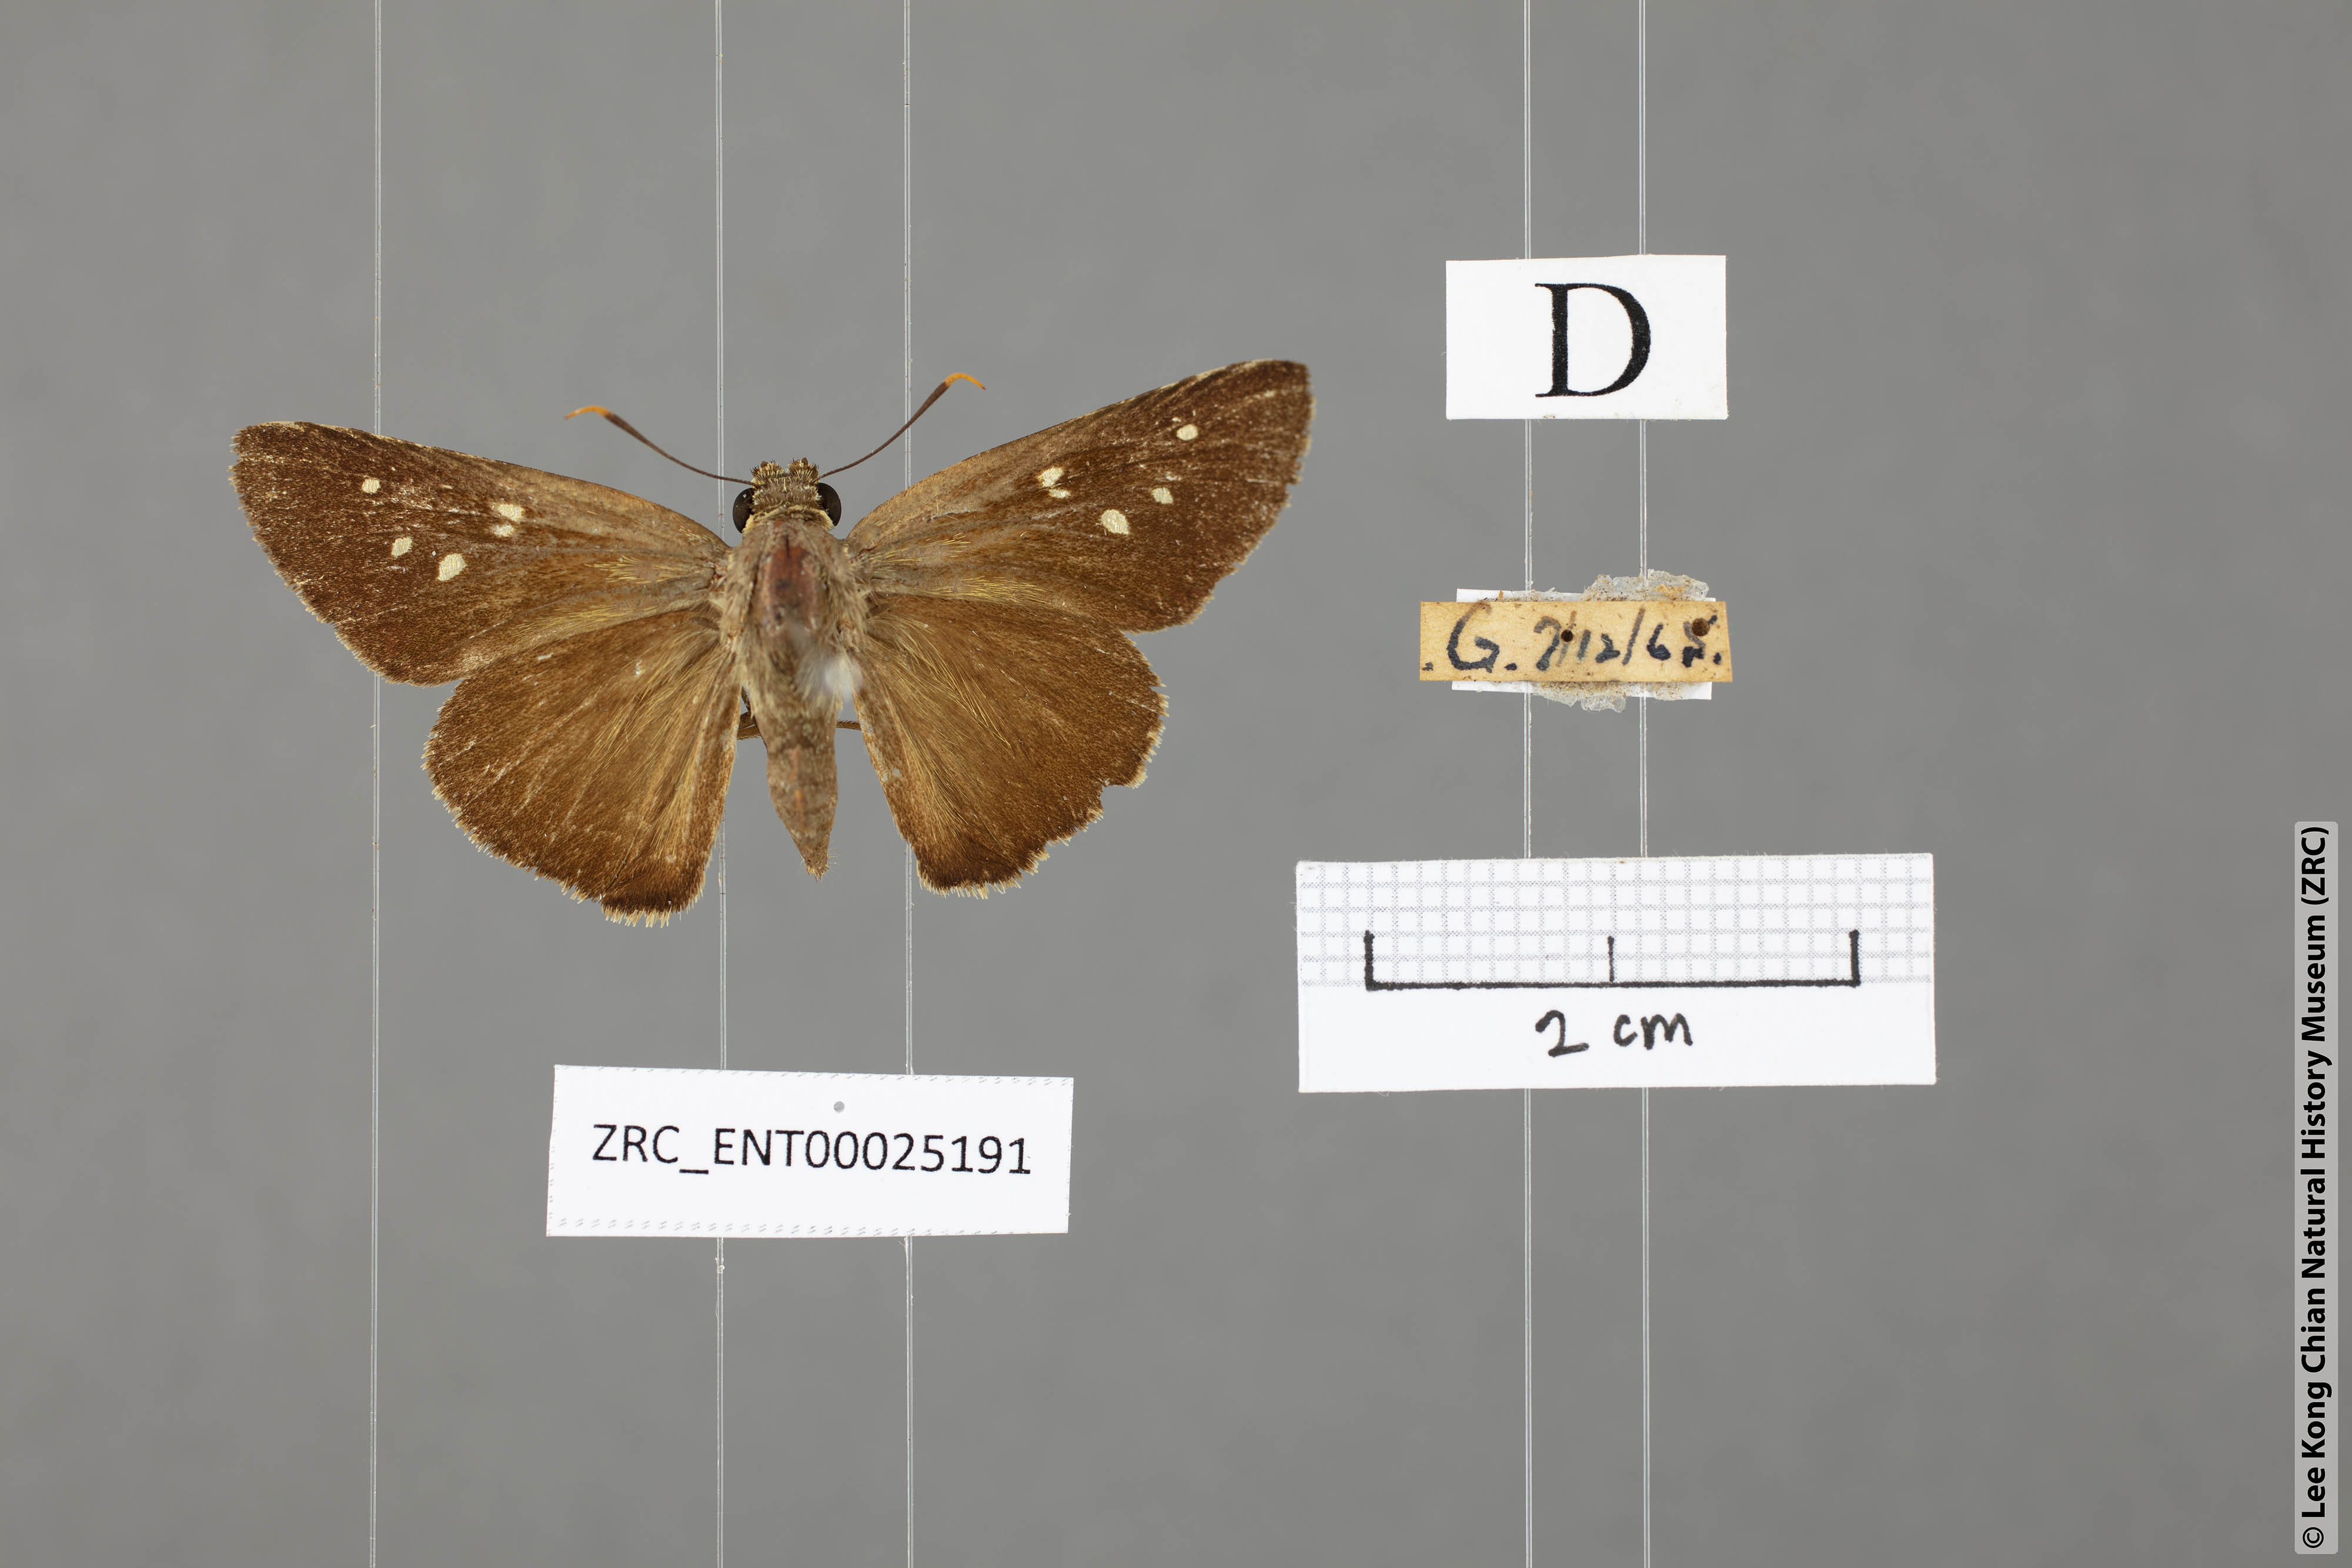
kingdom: Animalia
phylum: Arthropoda
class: Insecta
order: Lepidoptera
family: Hesperiidae
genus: Pithauria
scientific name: Pithauria stramineipennis
